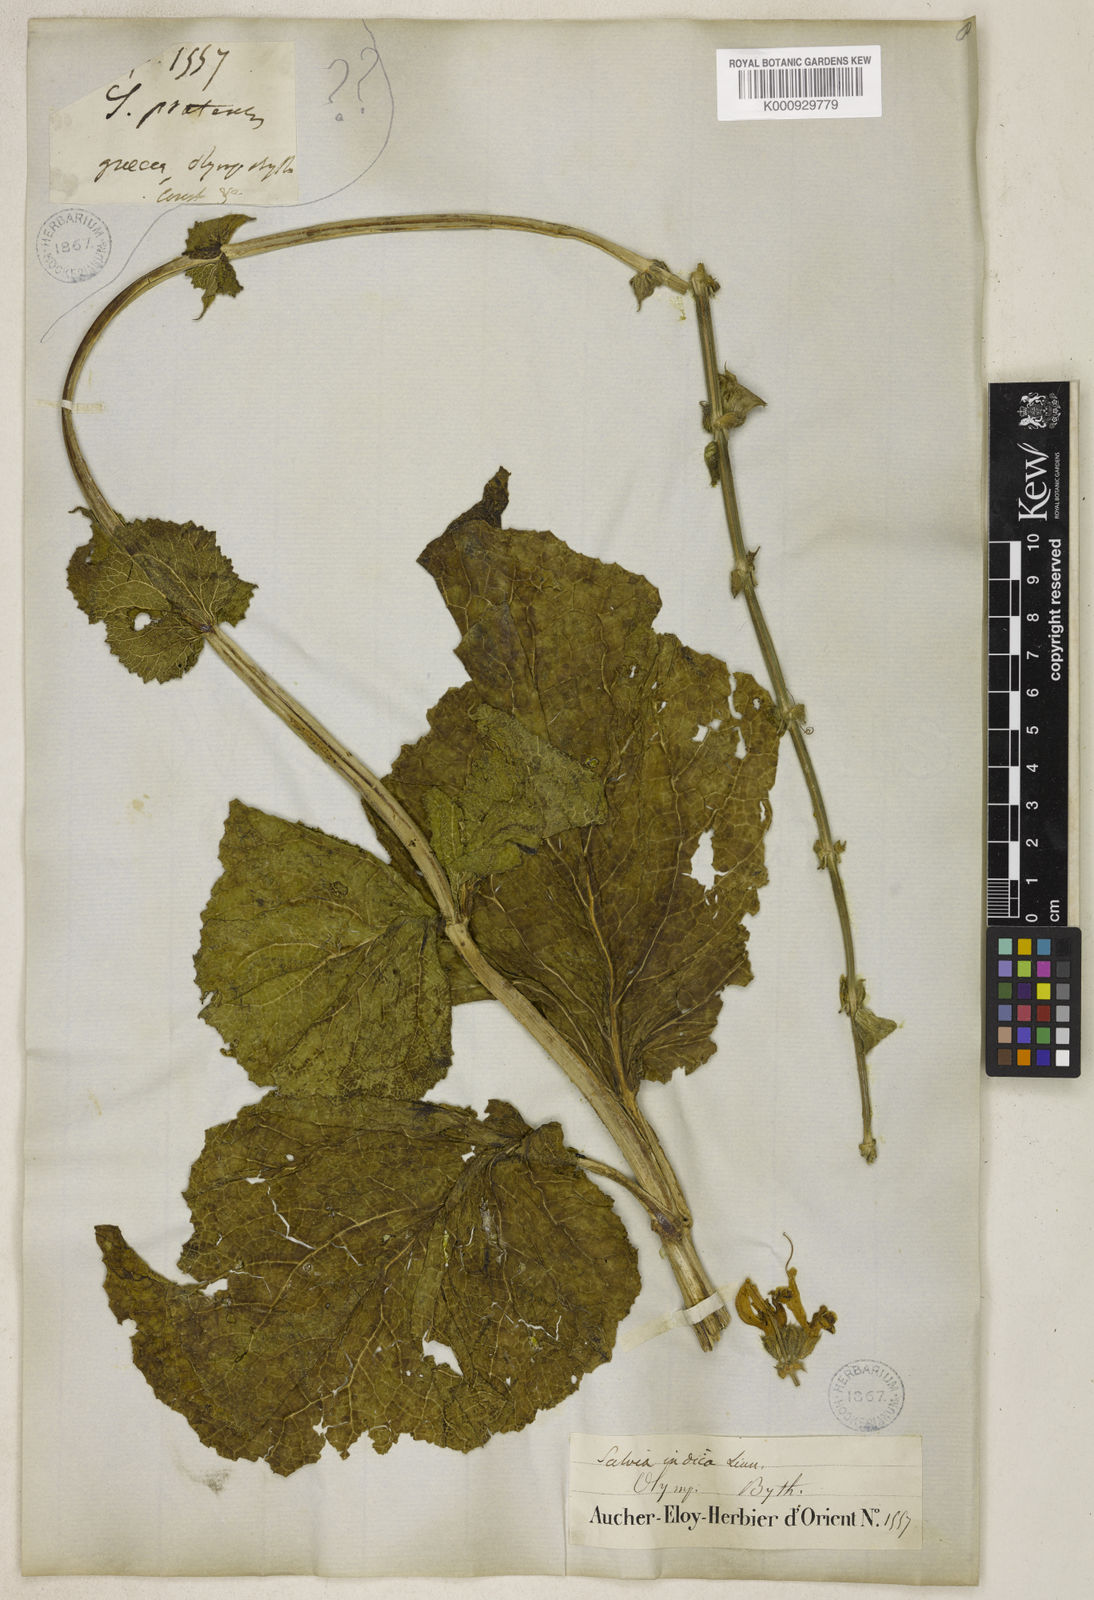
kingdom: Plantae
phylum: Tracheophyta
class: Magnoliopsida
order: Lamiales
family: Lamiaceae
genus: Salvia
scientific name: Salvia indica
